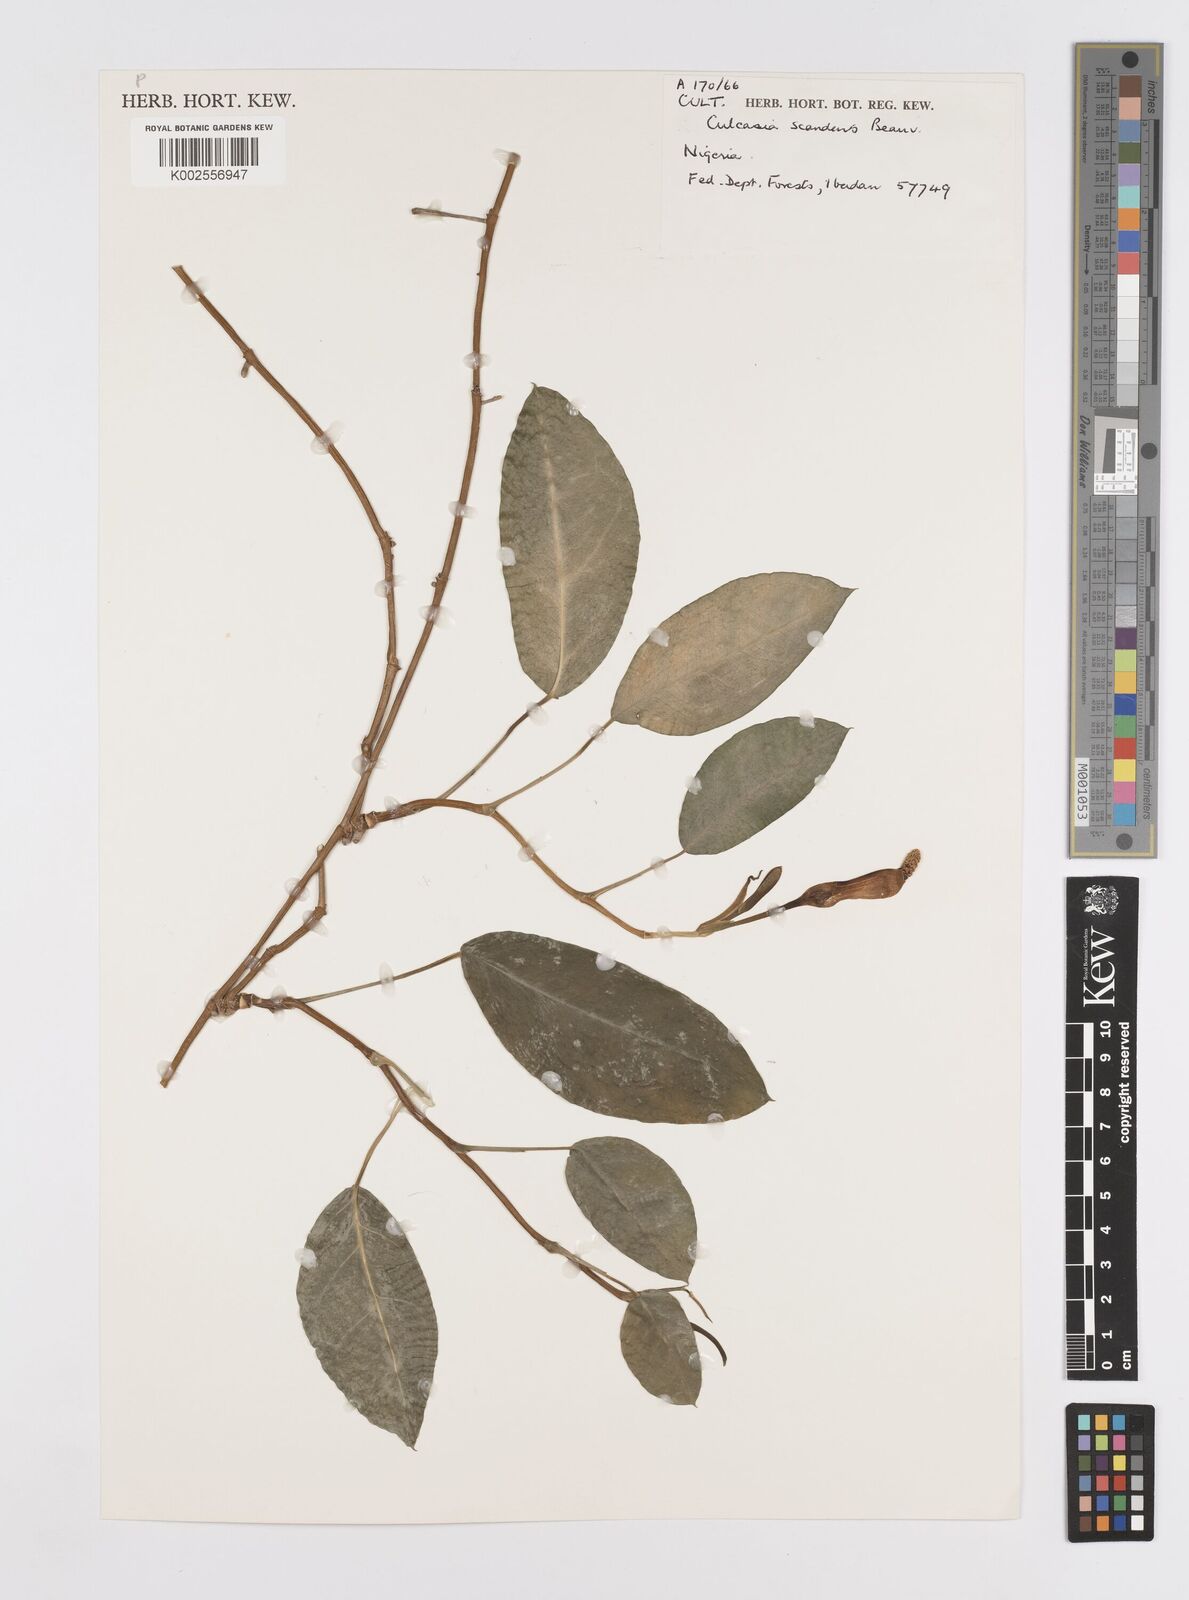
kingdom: Plantae
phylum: Tracheophyta
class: Liliopsida
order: Alismatales
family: Araceae
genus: Culcasia
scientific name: Culcasia scandens
